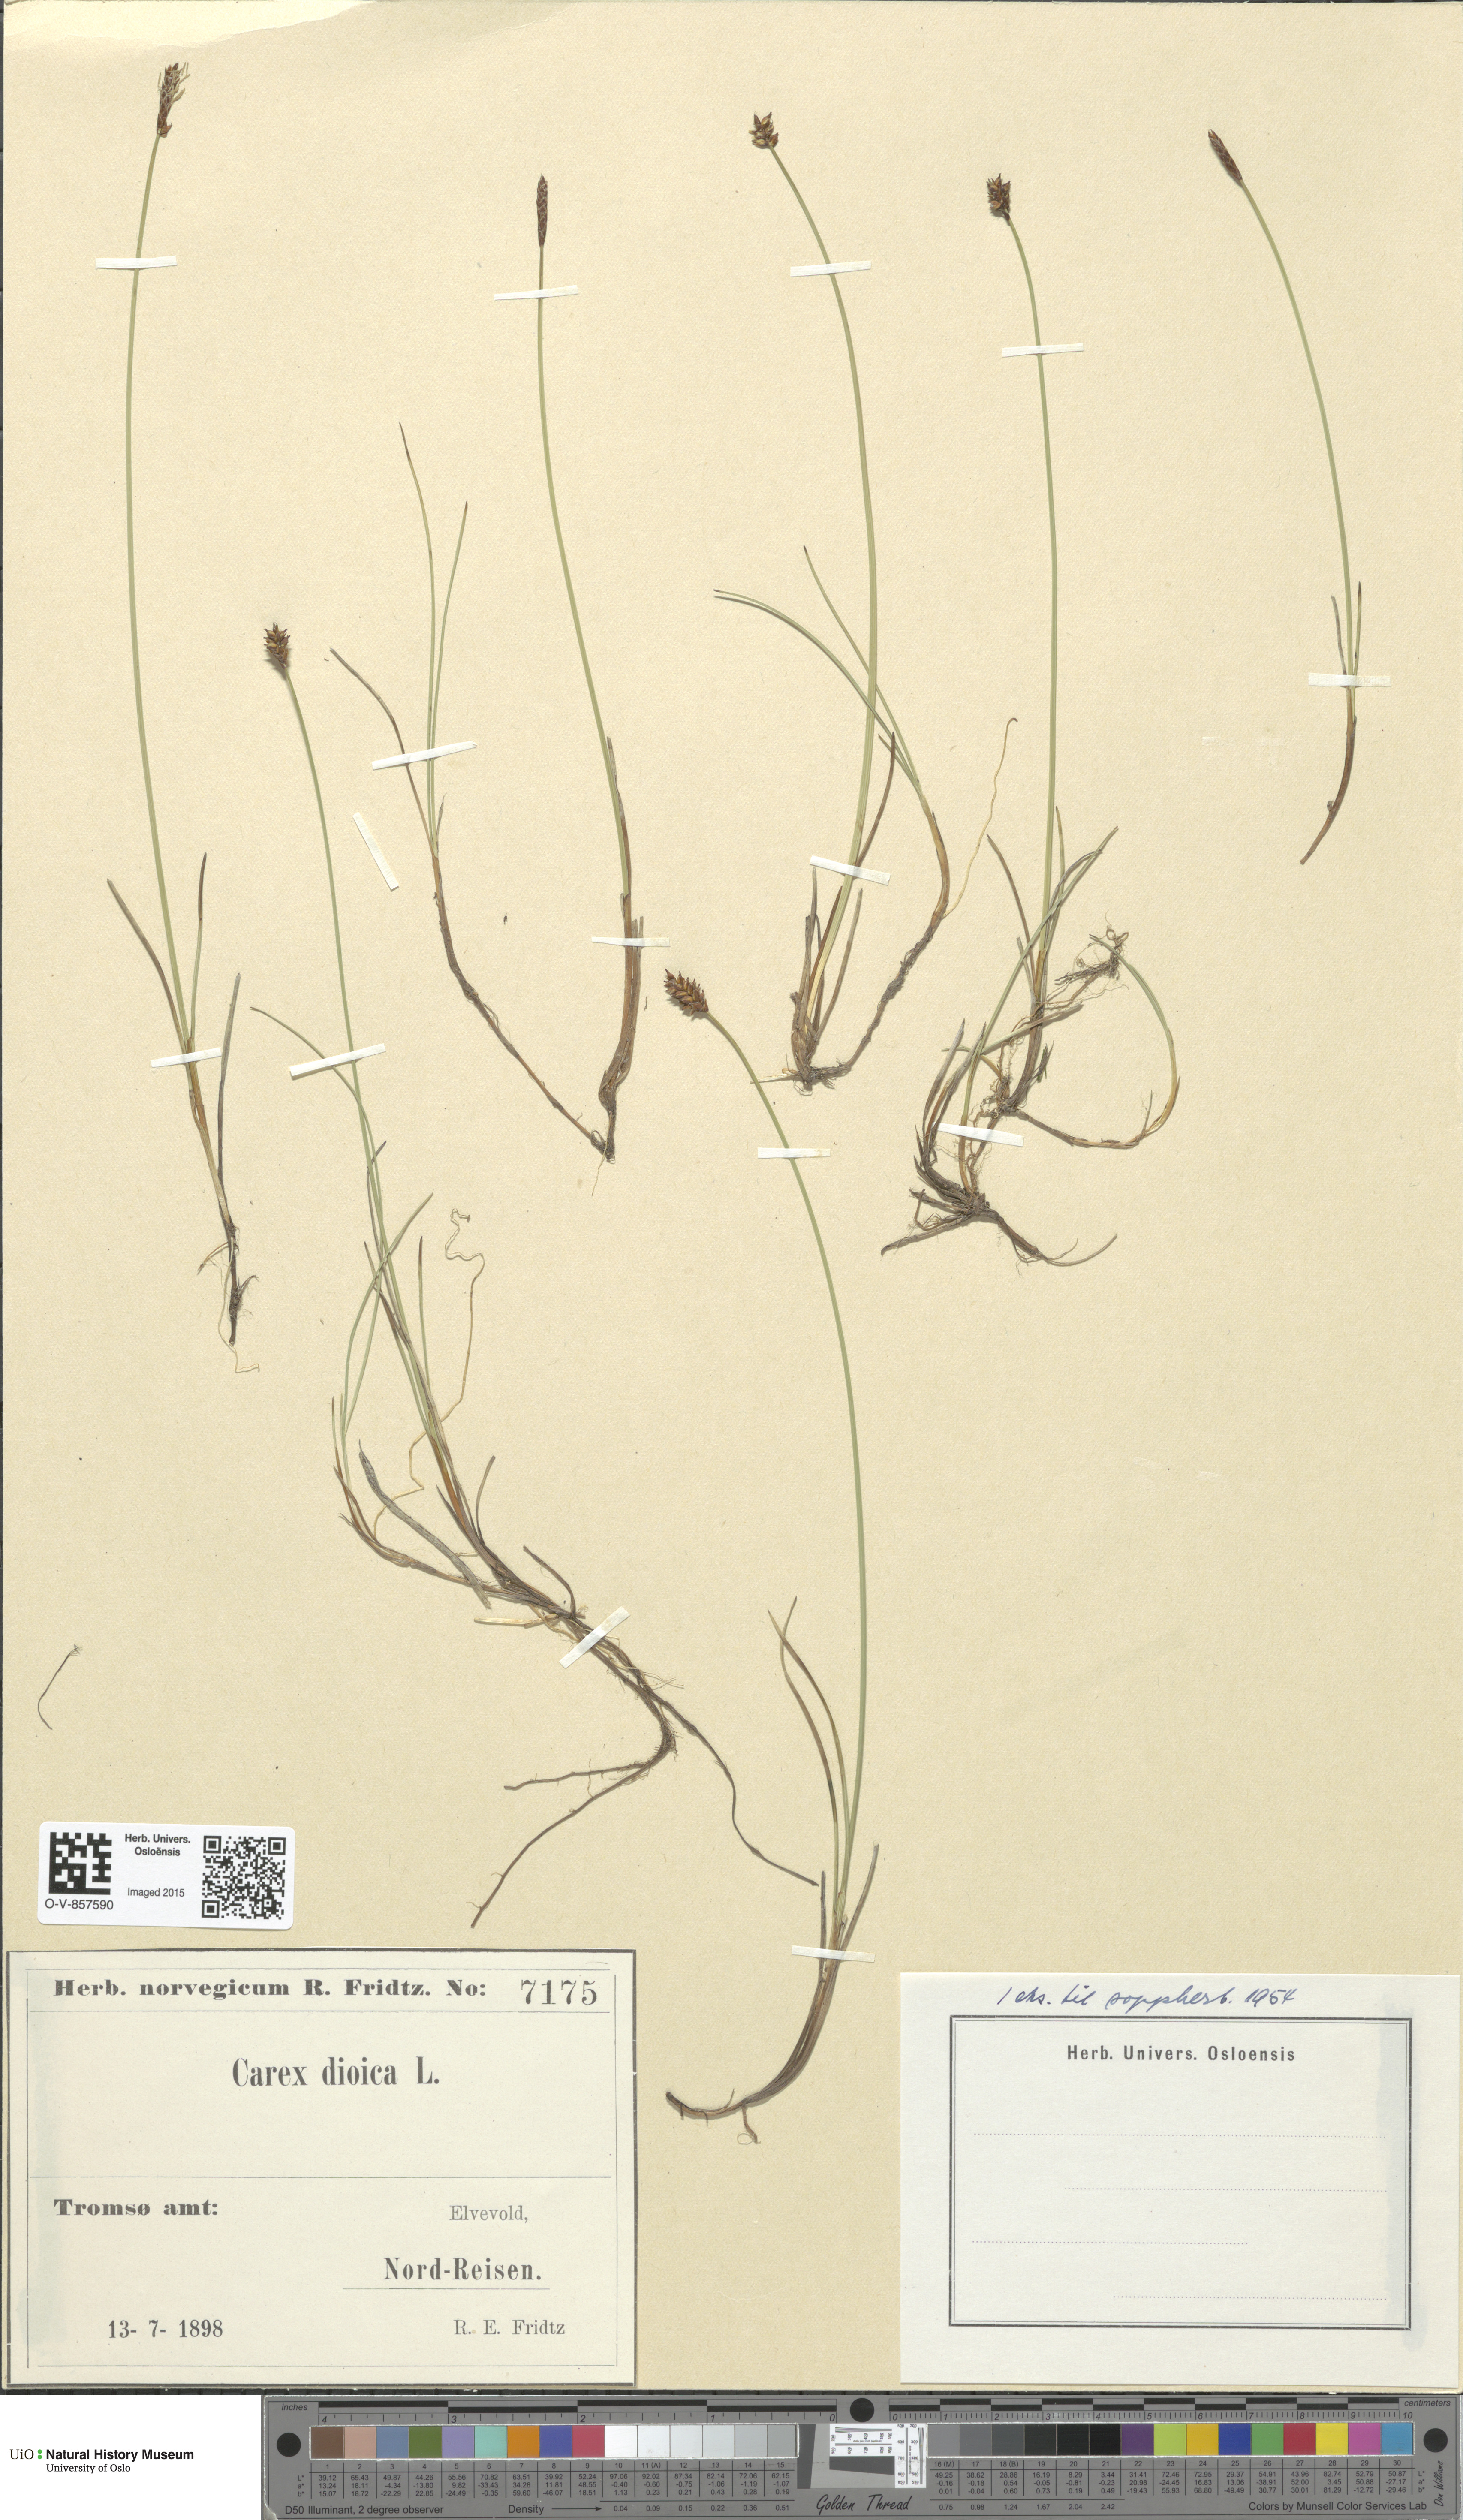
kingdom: Plantae
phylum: Tracheophyta
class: Liliopsida
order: Poales
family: Cyperaceae
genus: Carex
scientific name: Carex dioica
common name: Dioecious sedge
